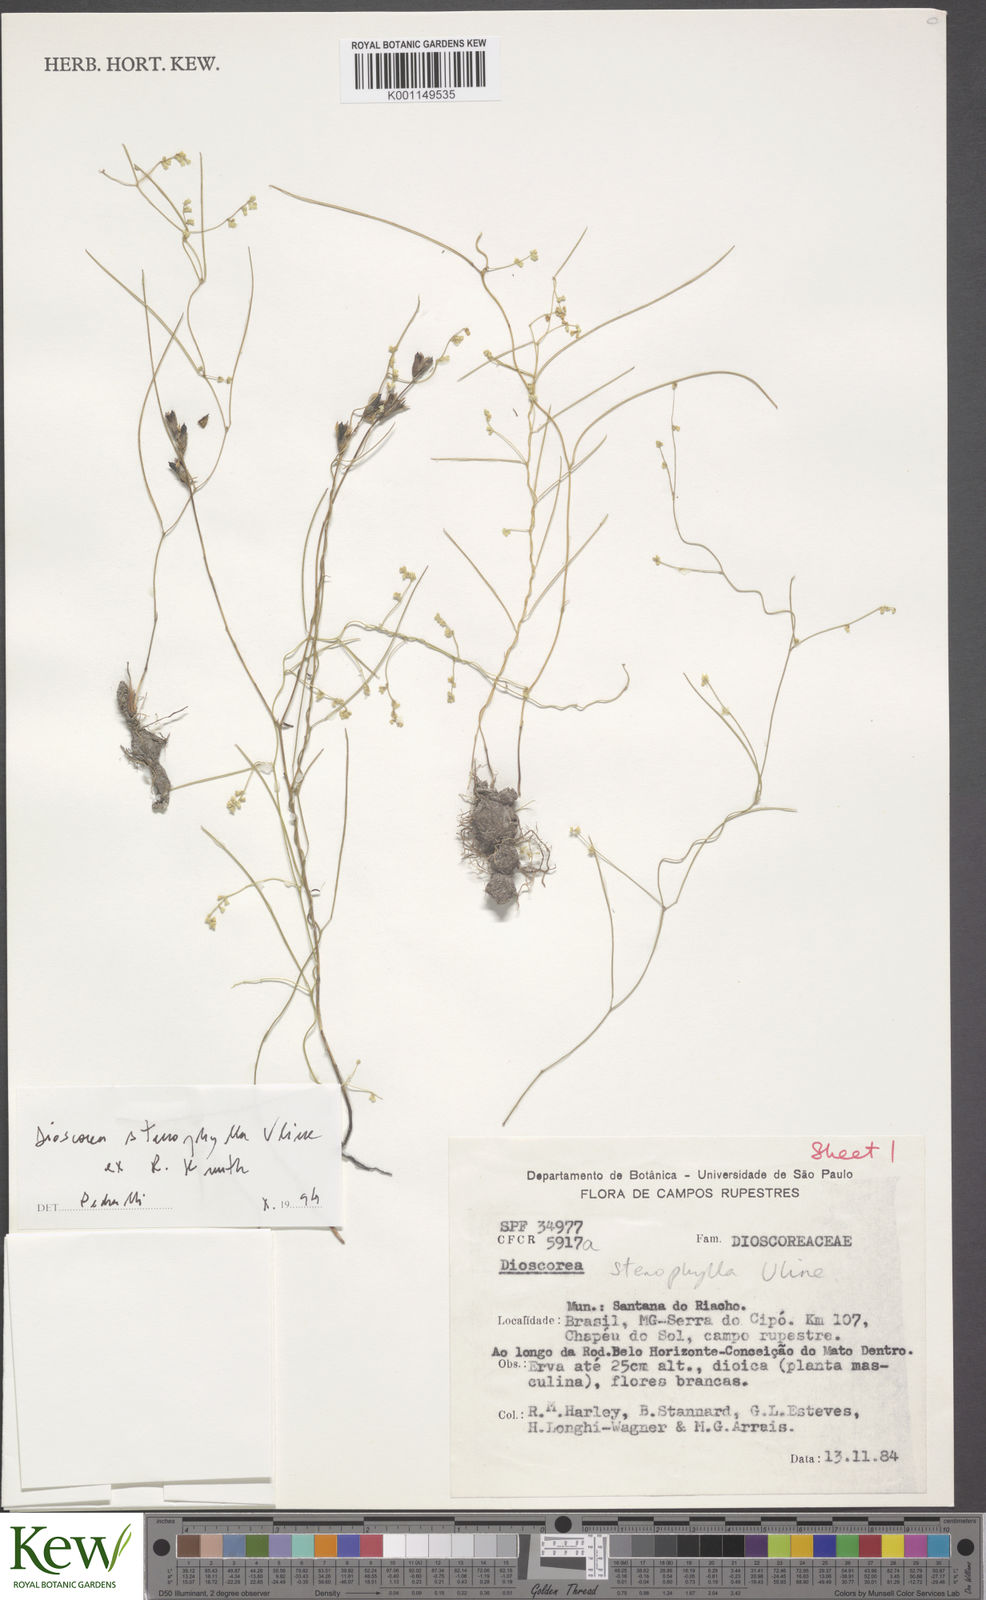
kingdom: Plantae
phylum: Tracheophyta
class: Liliopsida
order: Dioscoreales
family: Dioscoreaceae
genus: Dioscorea
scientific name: Dioscorea stenophylla
